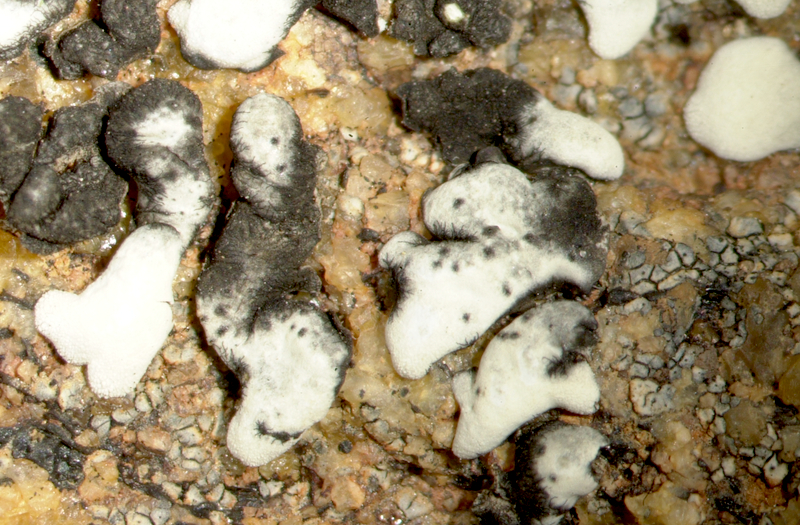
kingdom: Fungi
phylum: Ascomycota
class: Lecanoromycetes
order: Lecanorales
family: Parmeliaceae
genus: Paraparmelia
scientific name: Paraparmelia
